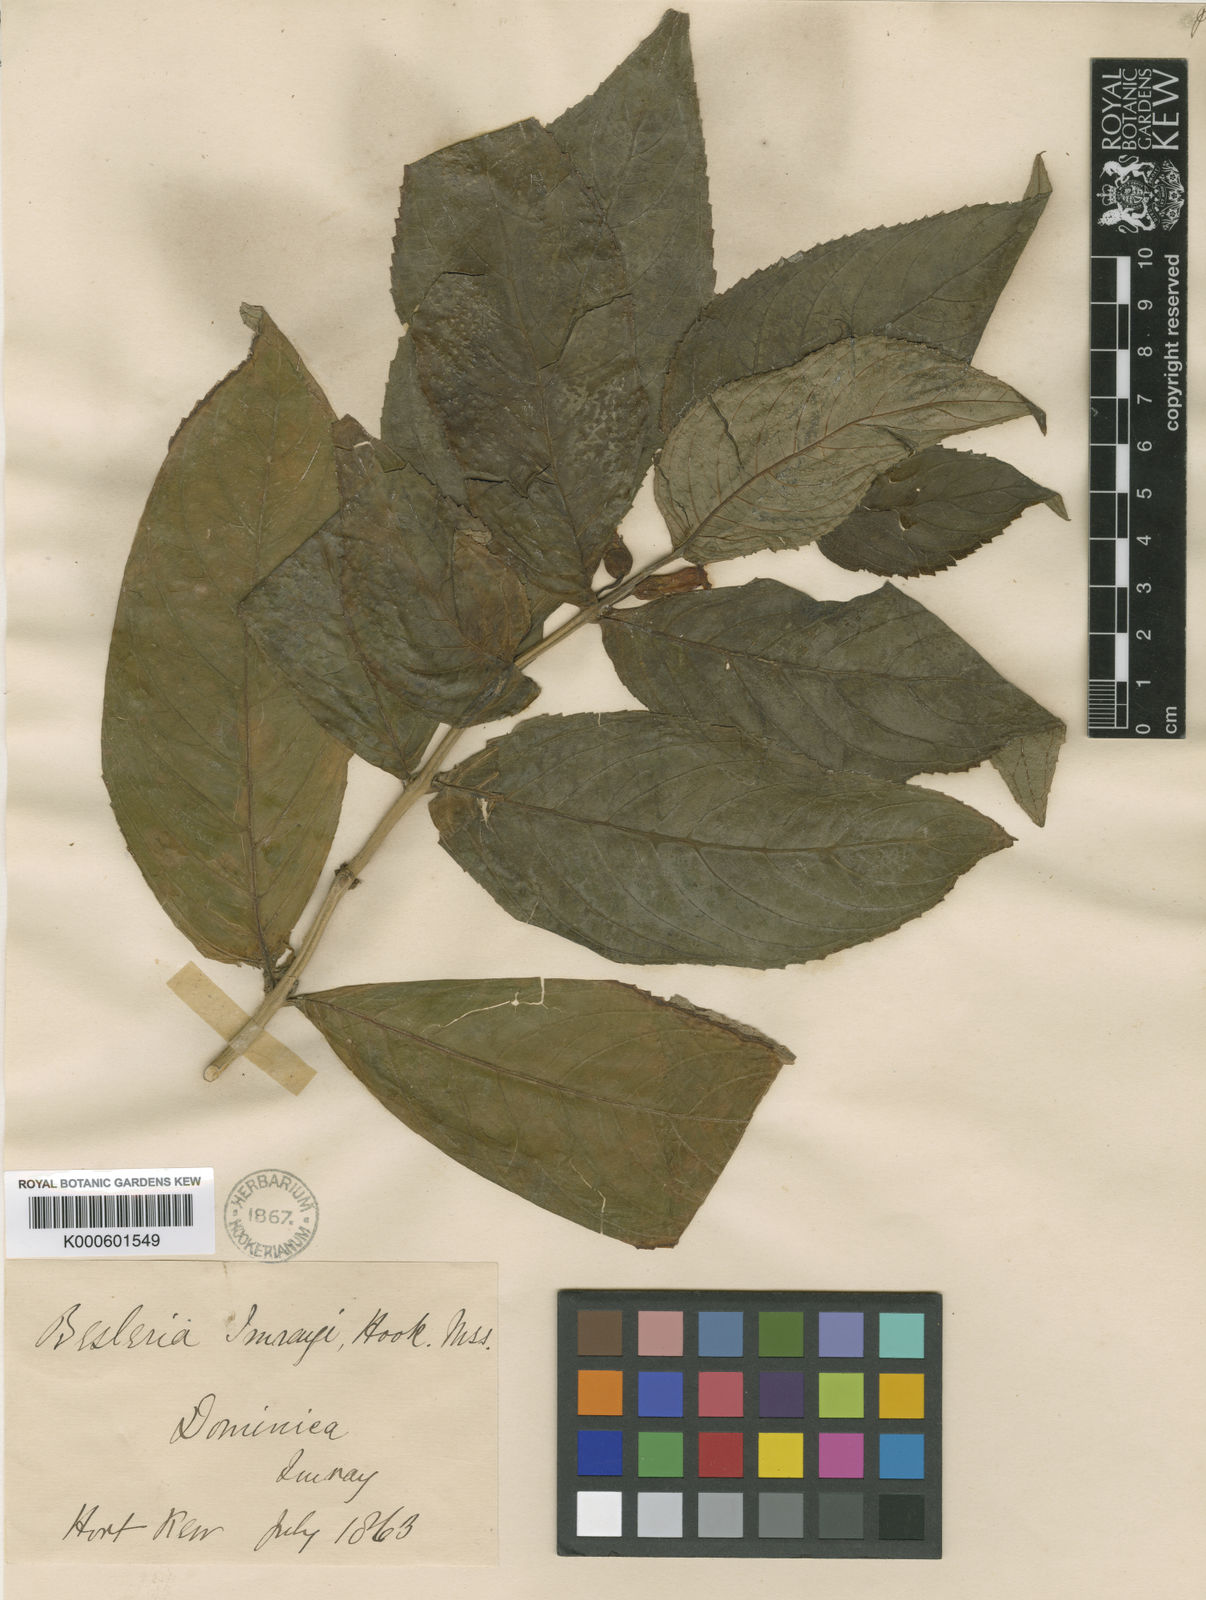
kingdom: Plantae
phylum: Tracheophyta
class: Magnoliopsida
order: Lamiales
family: Gesneriaceae
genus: Besleria
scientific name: Besleria lutea
